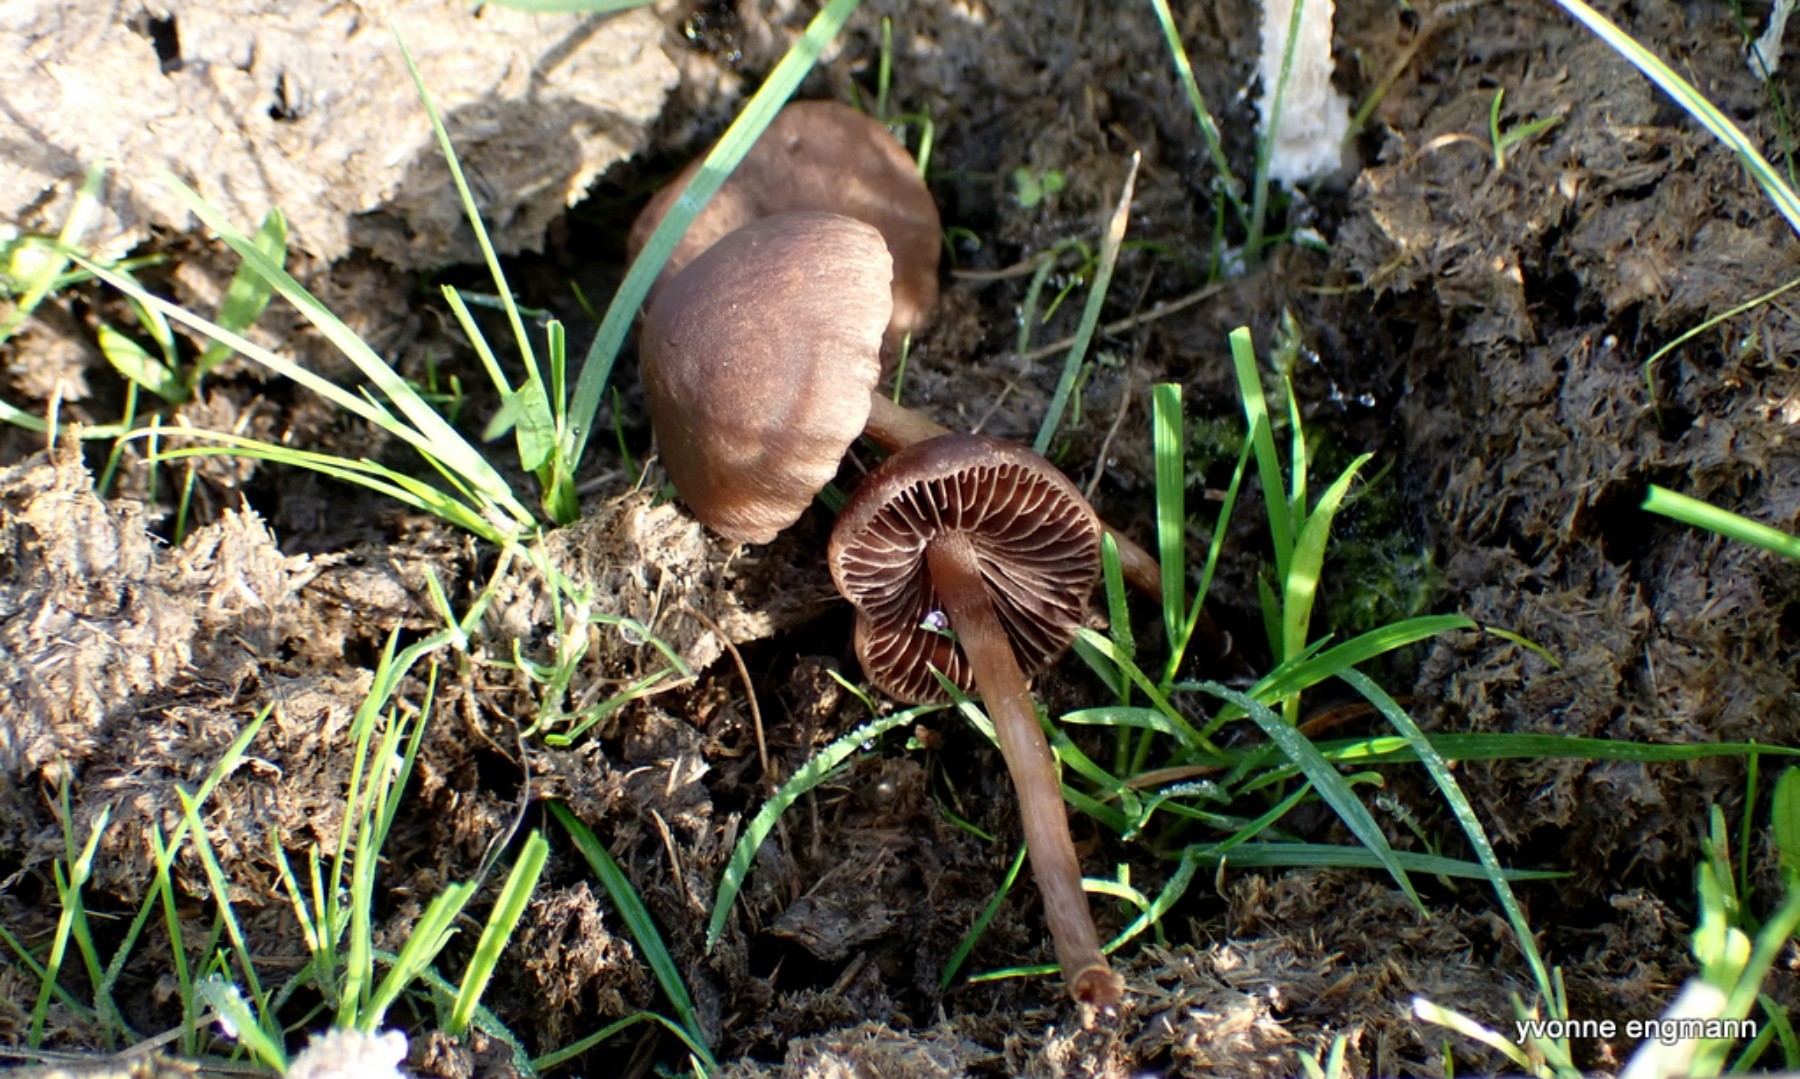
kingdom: Fungi
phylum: Basidiomycota
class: Agaricomycetes
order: Agaricales
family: Bolbitiaceae
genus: Panaeolina
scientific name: Panaeolina foenisecii
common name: høslætsvamp
